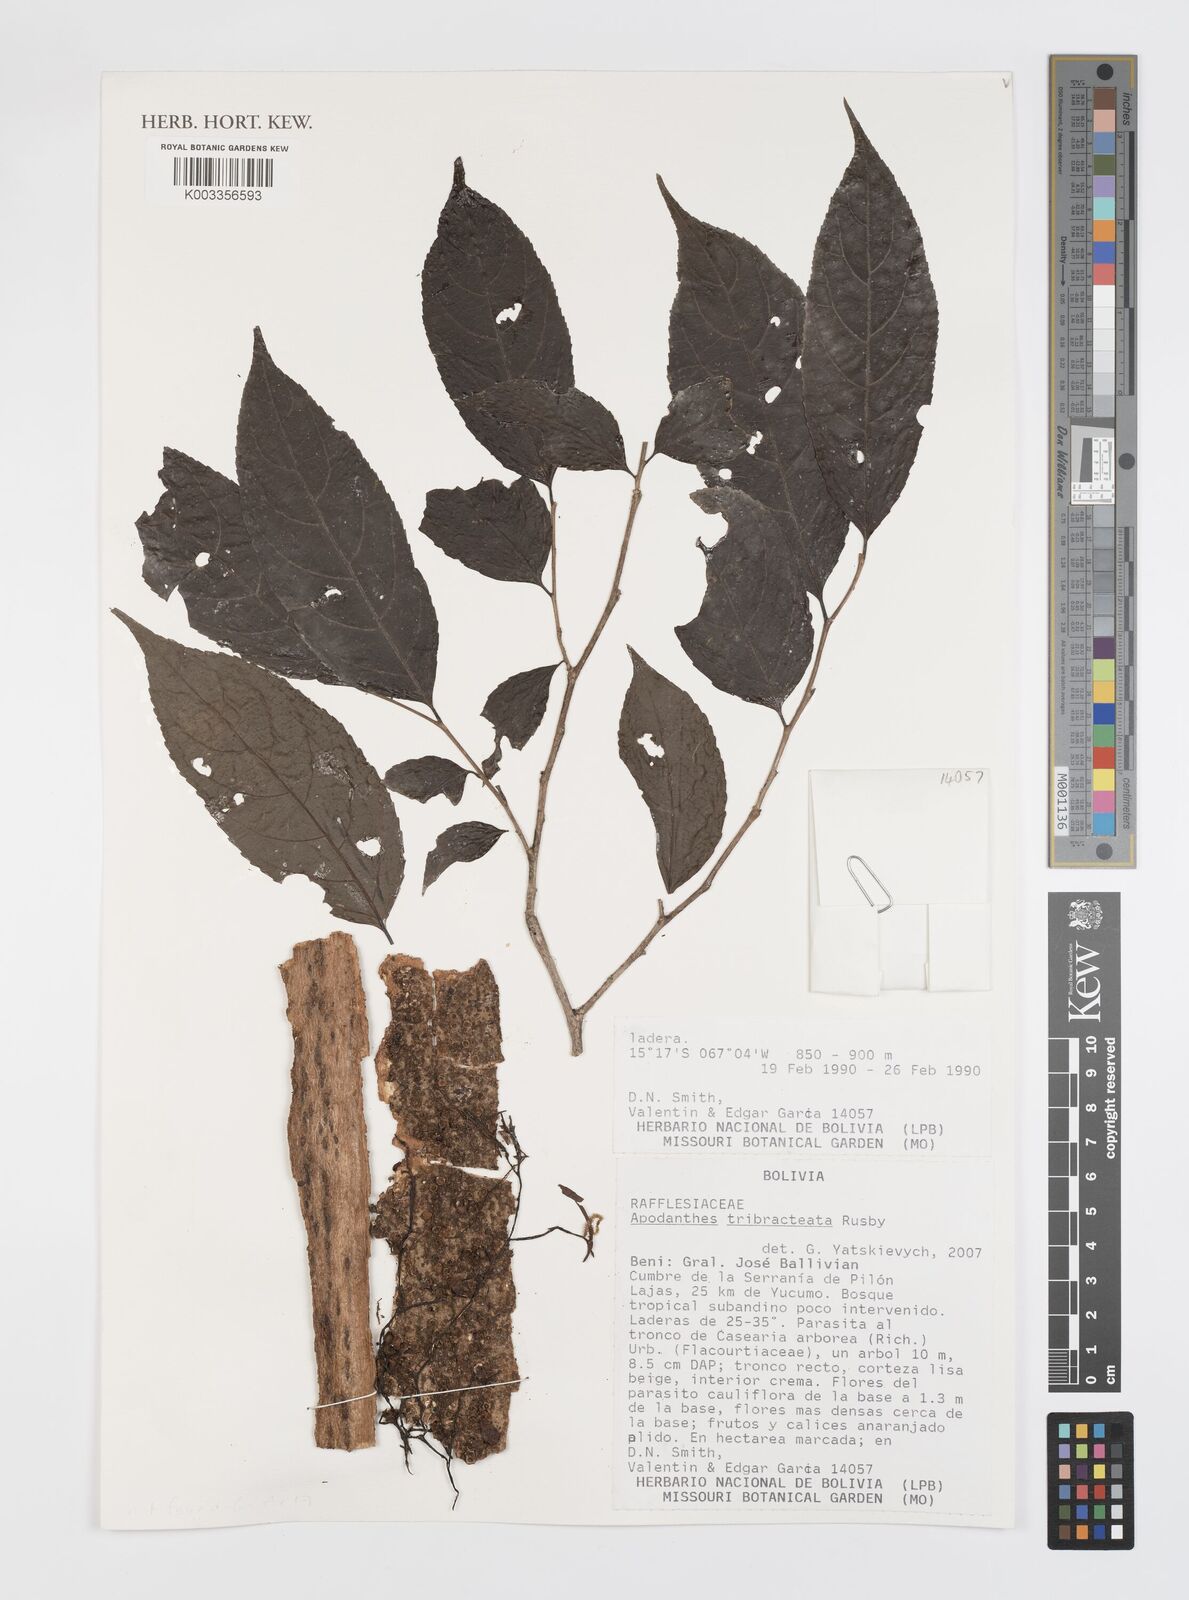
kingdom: Plantae
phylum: Tracheophyta
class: Magnoliopsida
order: Cucurbitales
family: Apodanthaceae
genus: Apodanthes
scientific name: Apodanthes caseariae
